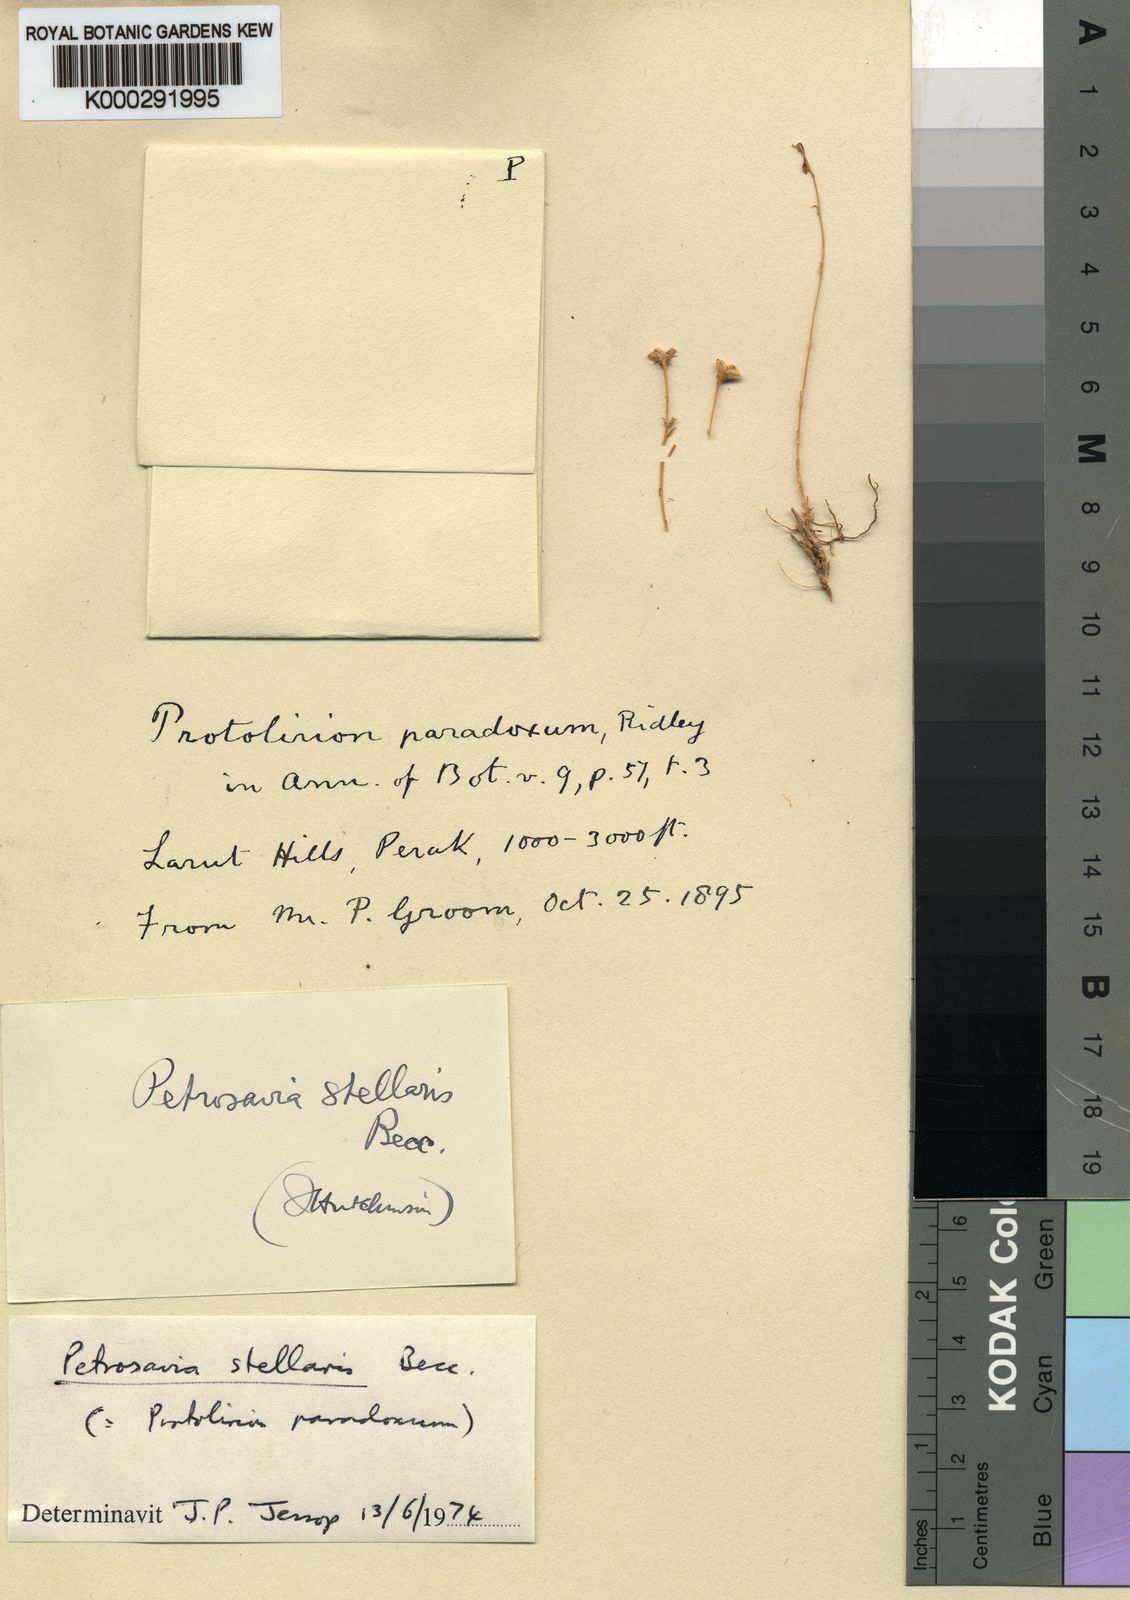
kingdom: Plantae
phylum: Tracheophyta
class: Liliopsida
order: Petrosaviales
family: Petrosaviaceae
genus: Petrosavia
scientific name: Petrosavia stellaris
